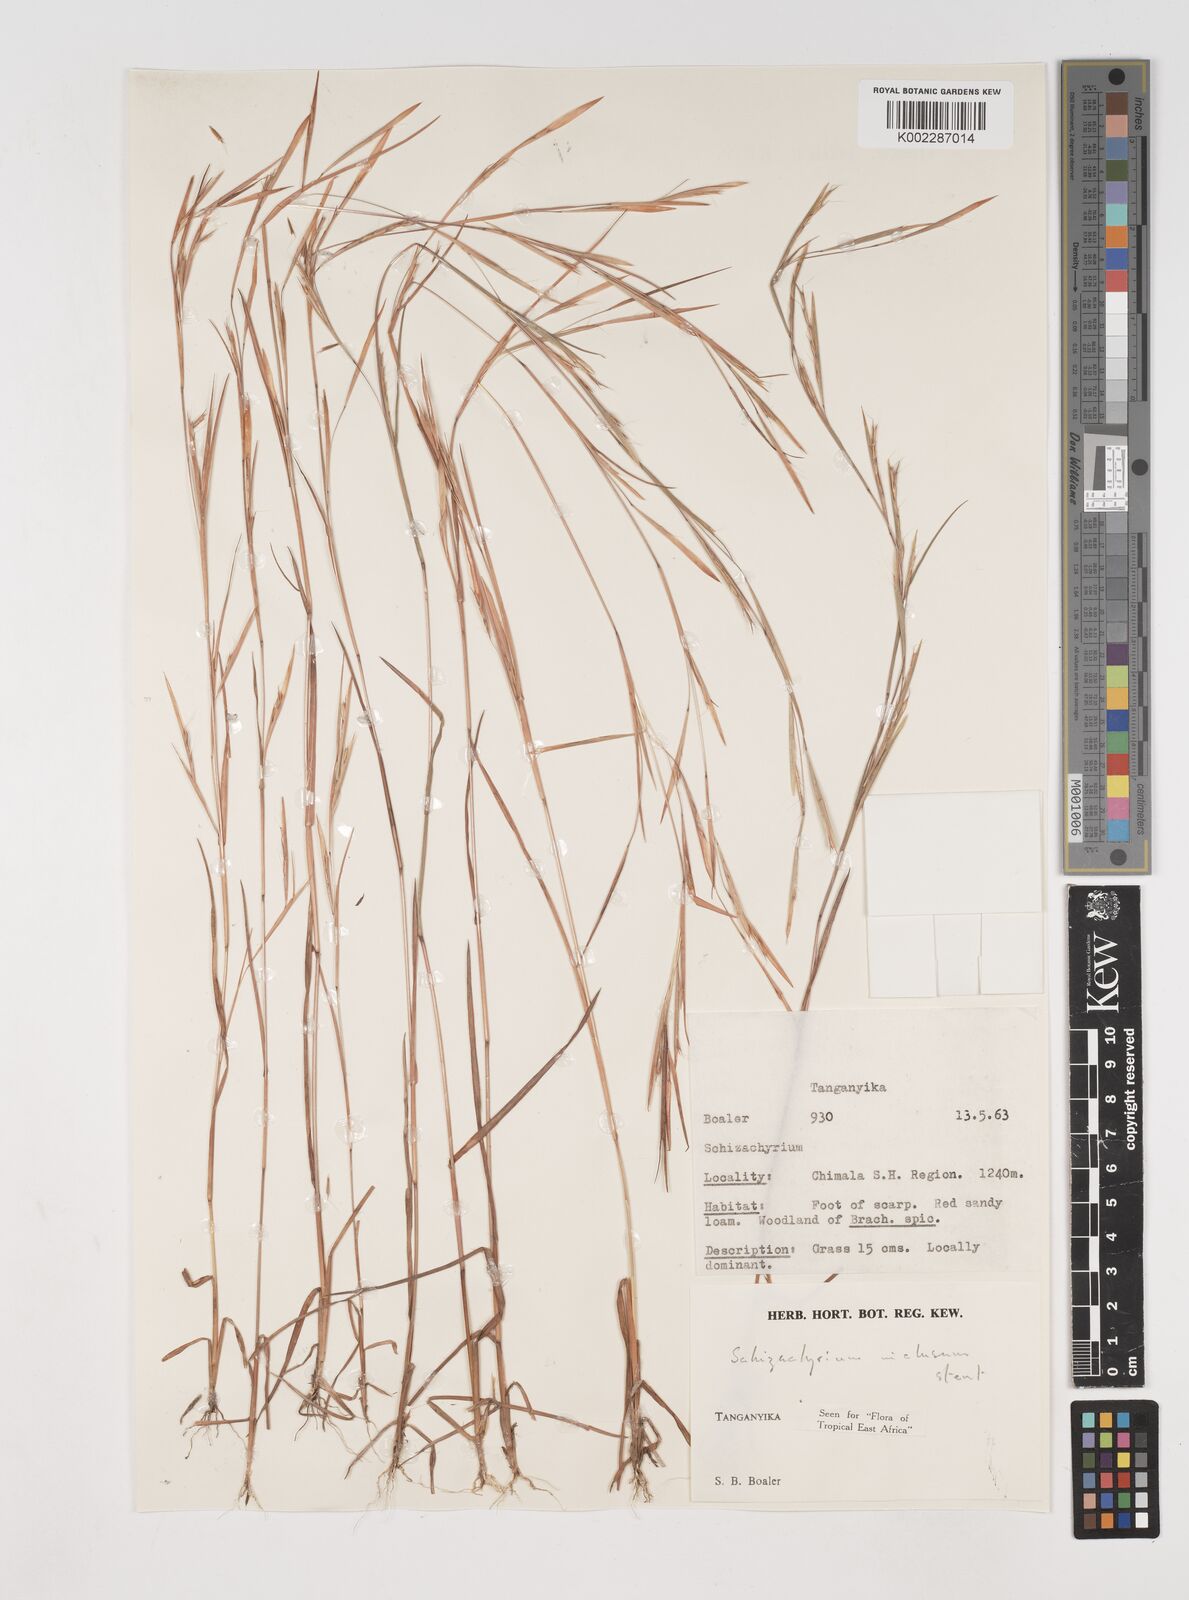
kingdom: Plantae
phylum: Tracheophyta
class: Liliopsida
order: Poales
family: Poaceae
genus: Schizachyrium
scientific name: Schizachyrium exile
